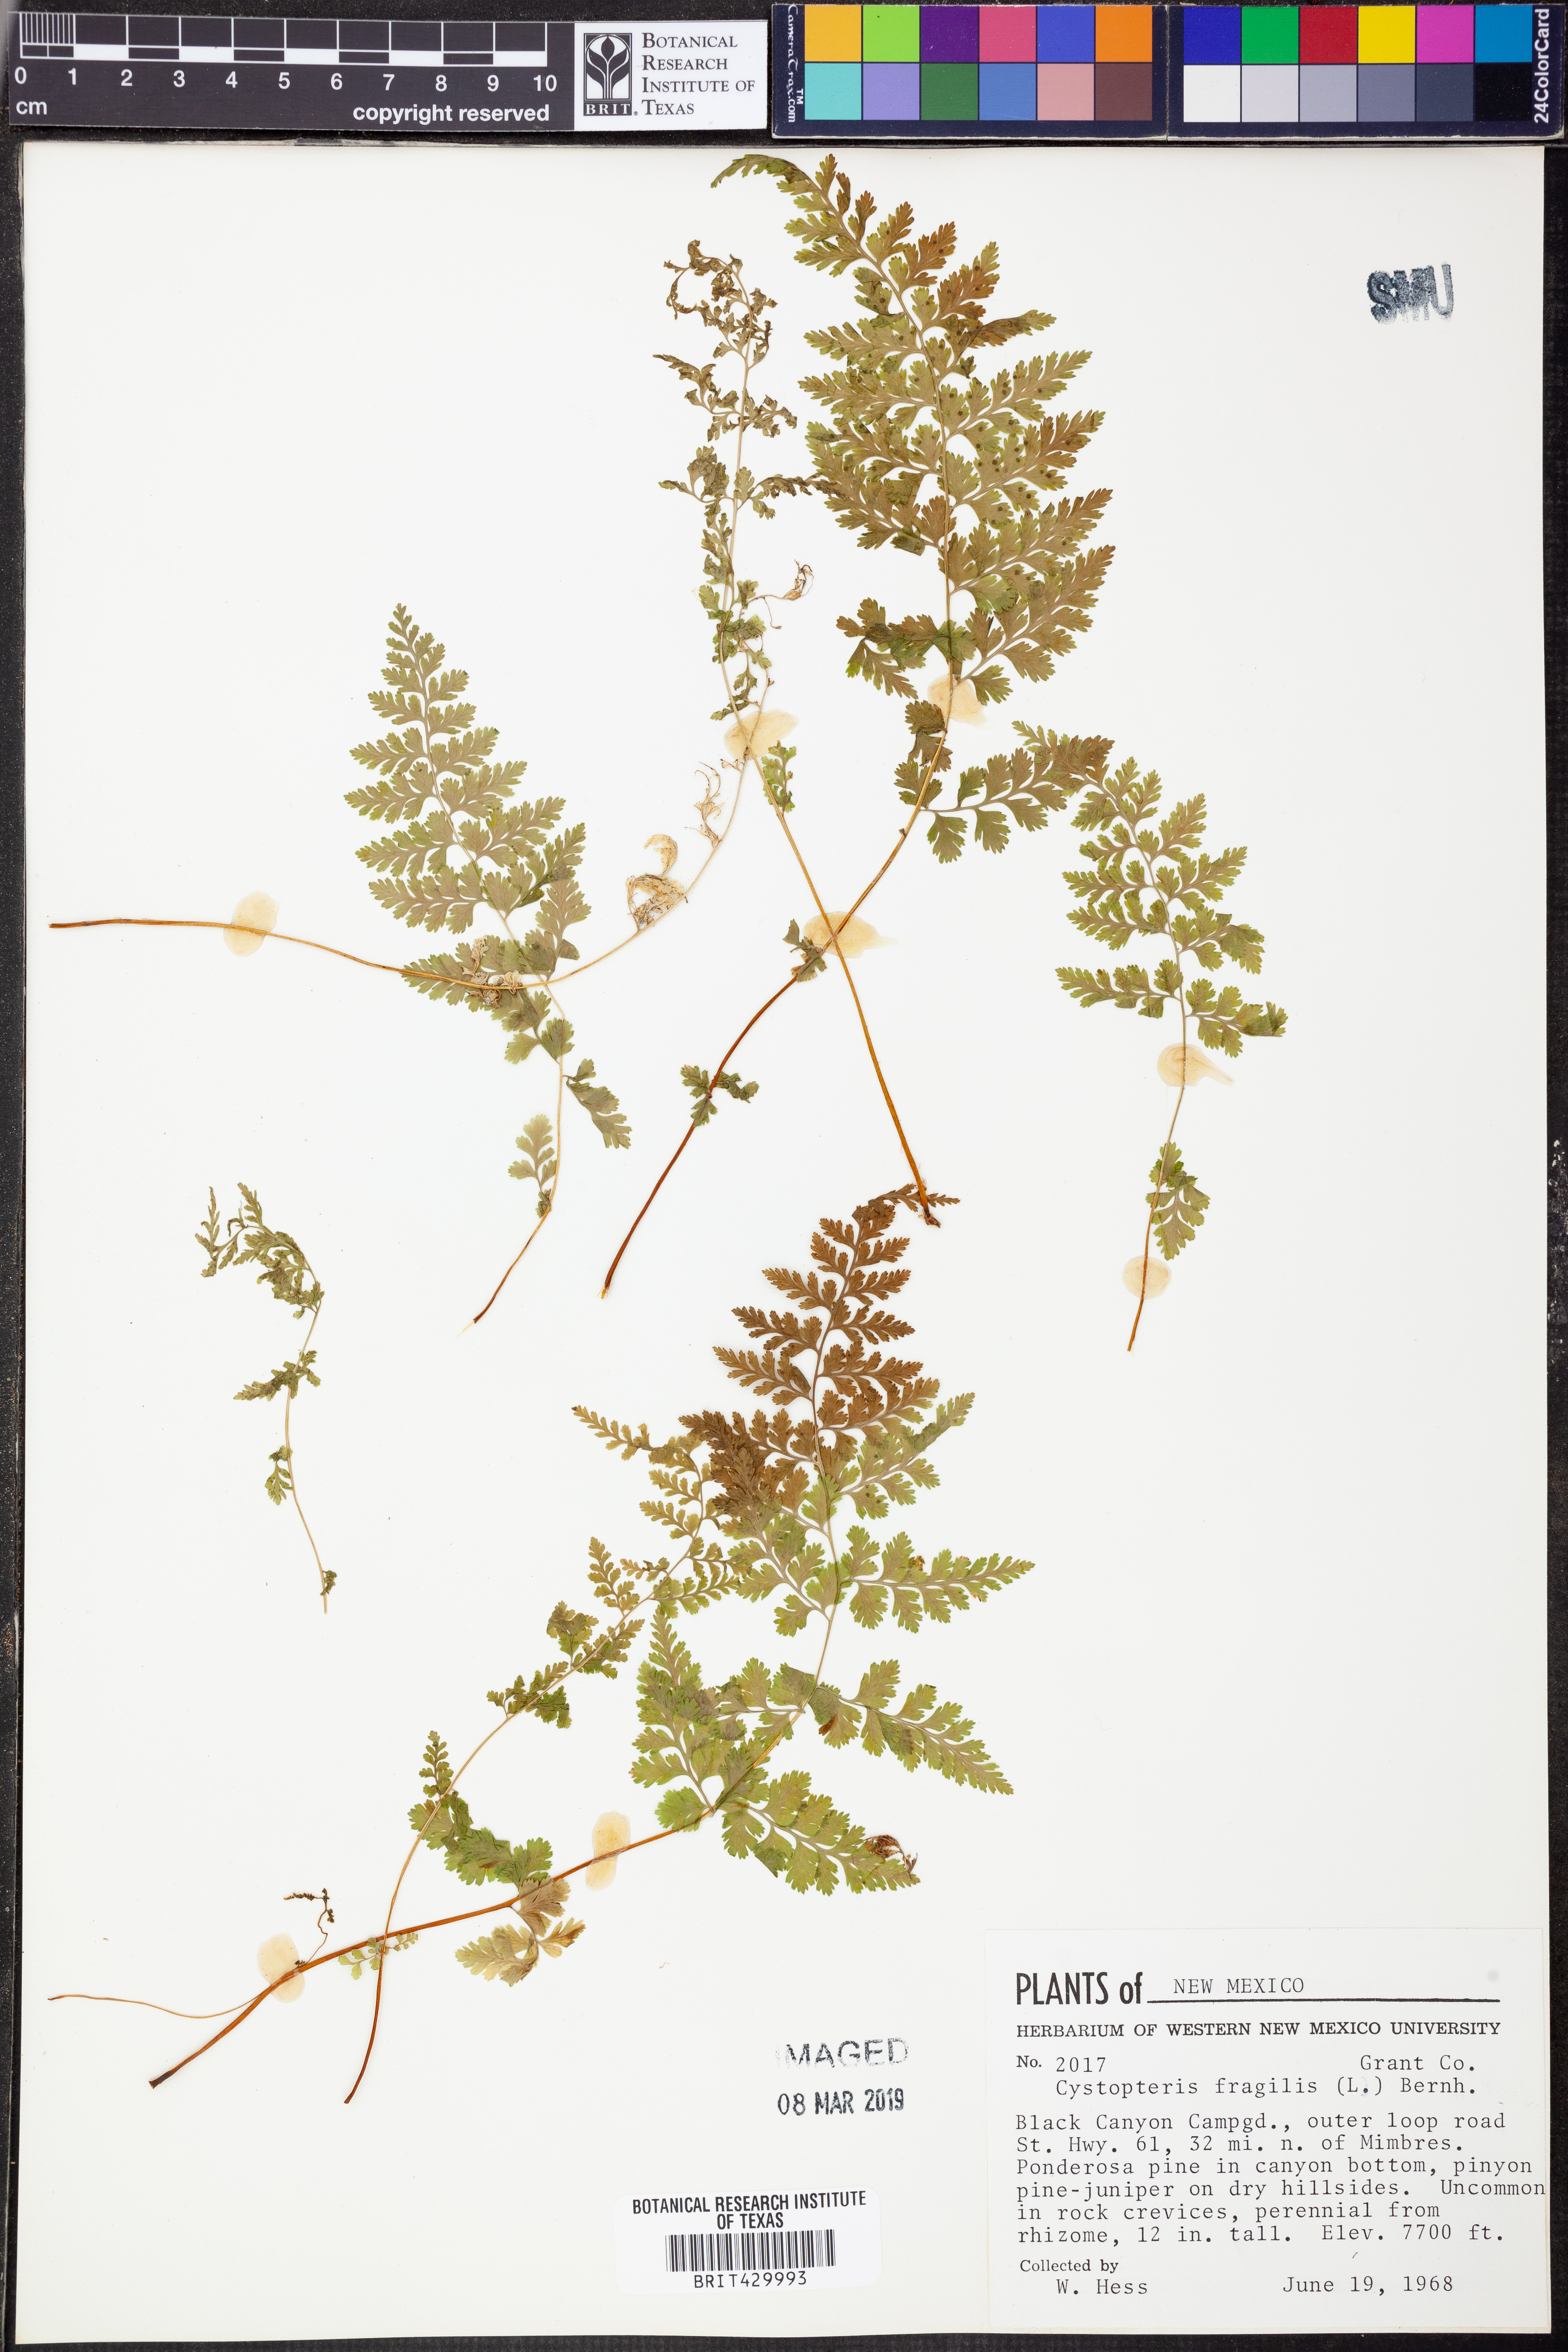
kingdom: Plantae
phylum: Tracheophyta
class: Polypodiopsida
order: Polypodiales
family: Cystopteridaceae
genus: Cystopteris
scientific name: Cystopteris fragilis
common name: Brittle bladder fern
